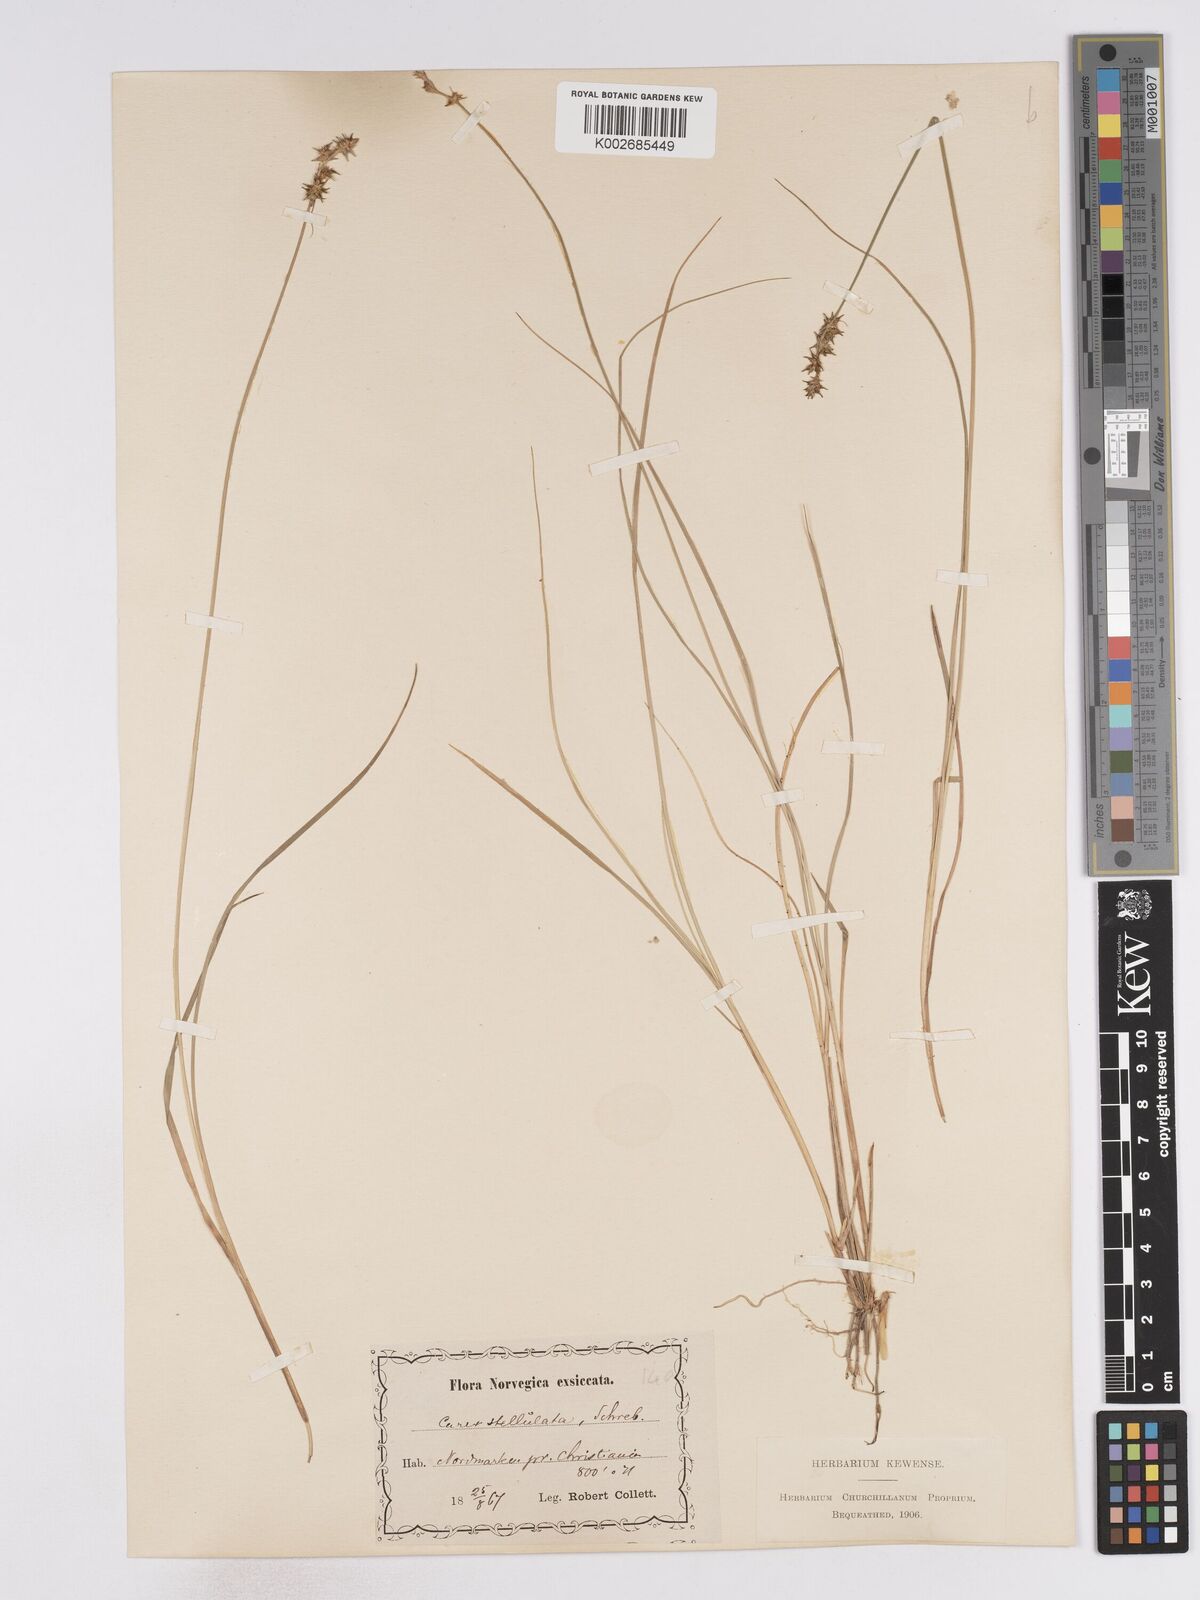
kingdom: Plantae
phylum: Tracheophyta
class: Liliopsida
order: Poales
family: Cyperaceae
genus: Carex
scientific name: Carex echinata
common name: Star sedge
